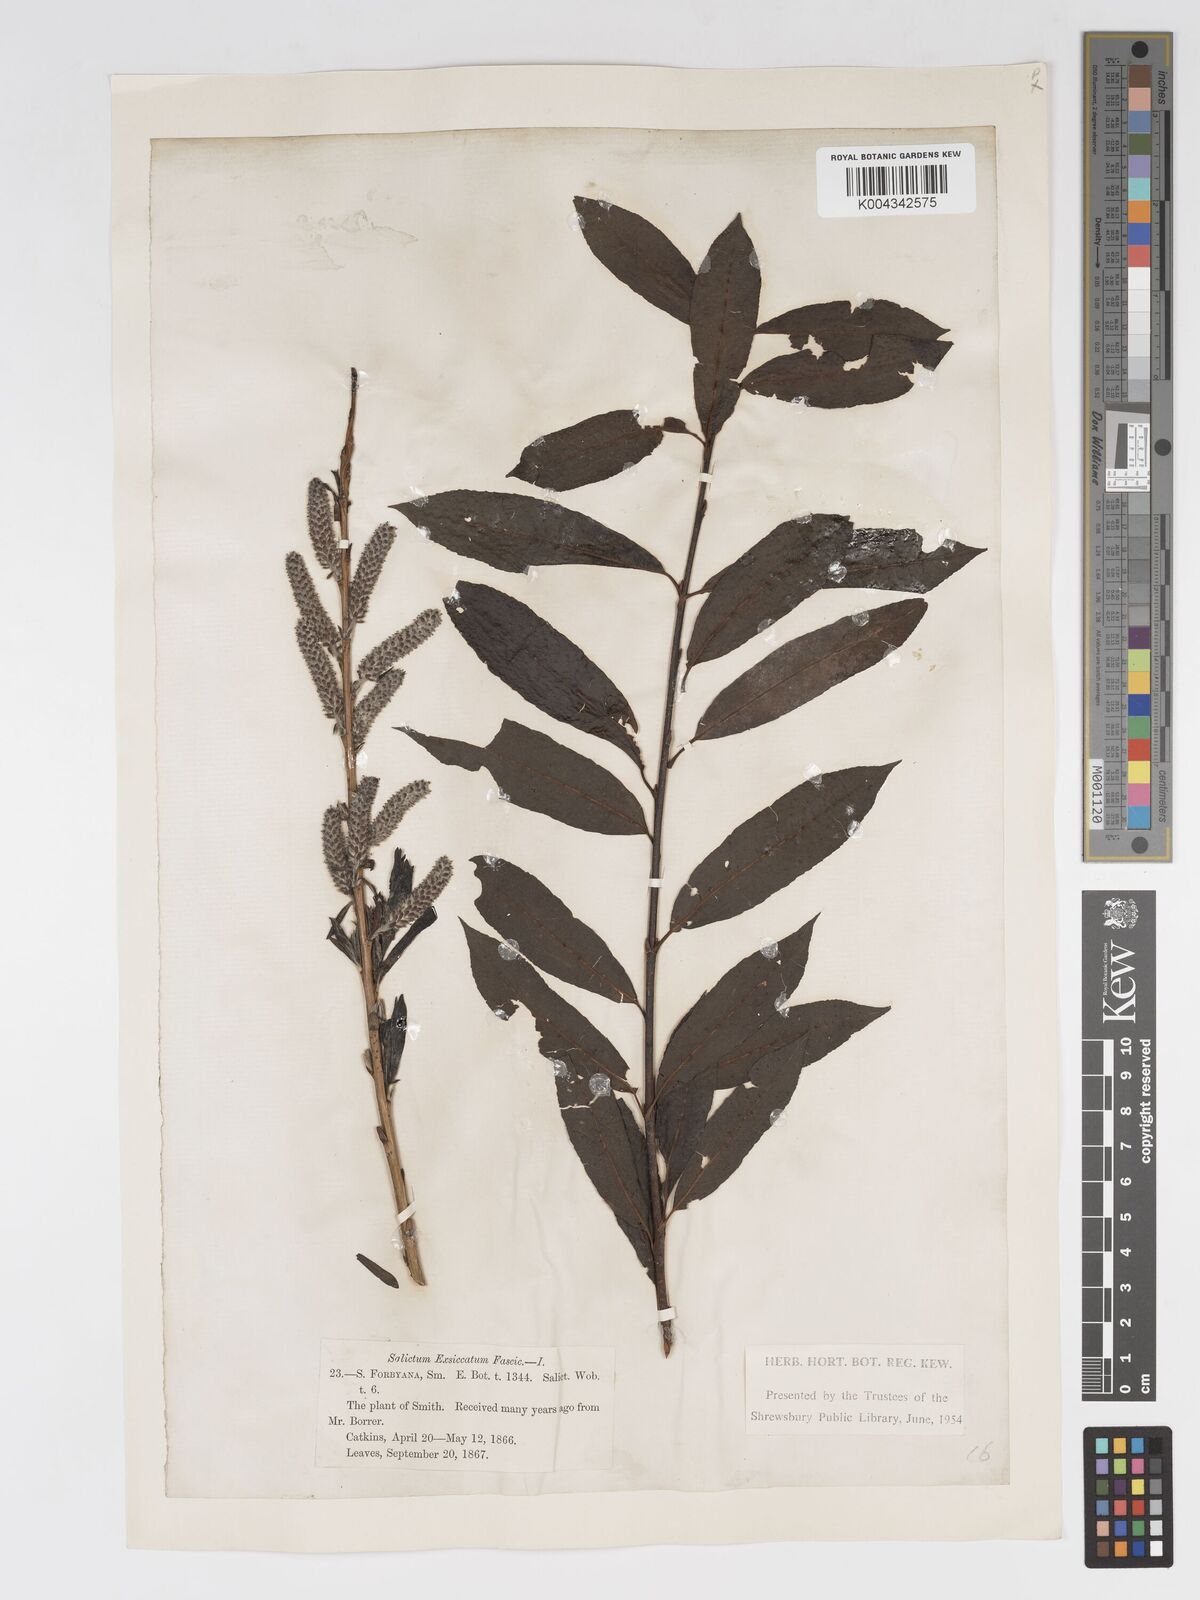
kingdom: Plantae
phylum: Tracheophyta
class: Magnoliopsida
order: Malpighiales
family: Salicaceae
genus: Salix
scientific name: Salix cinerea
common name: Common sallow
